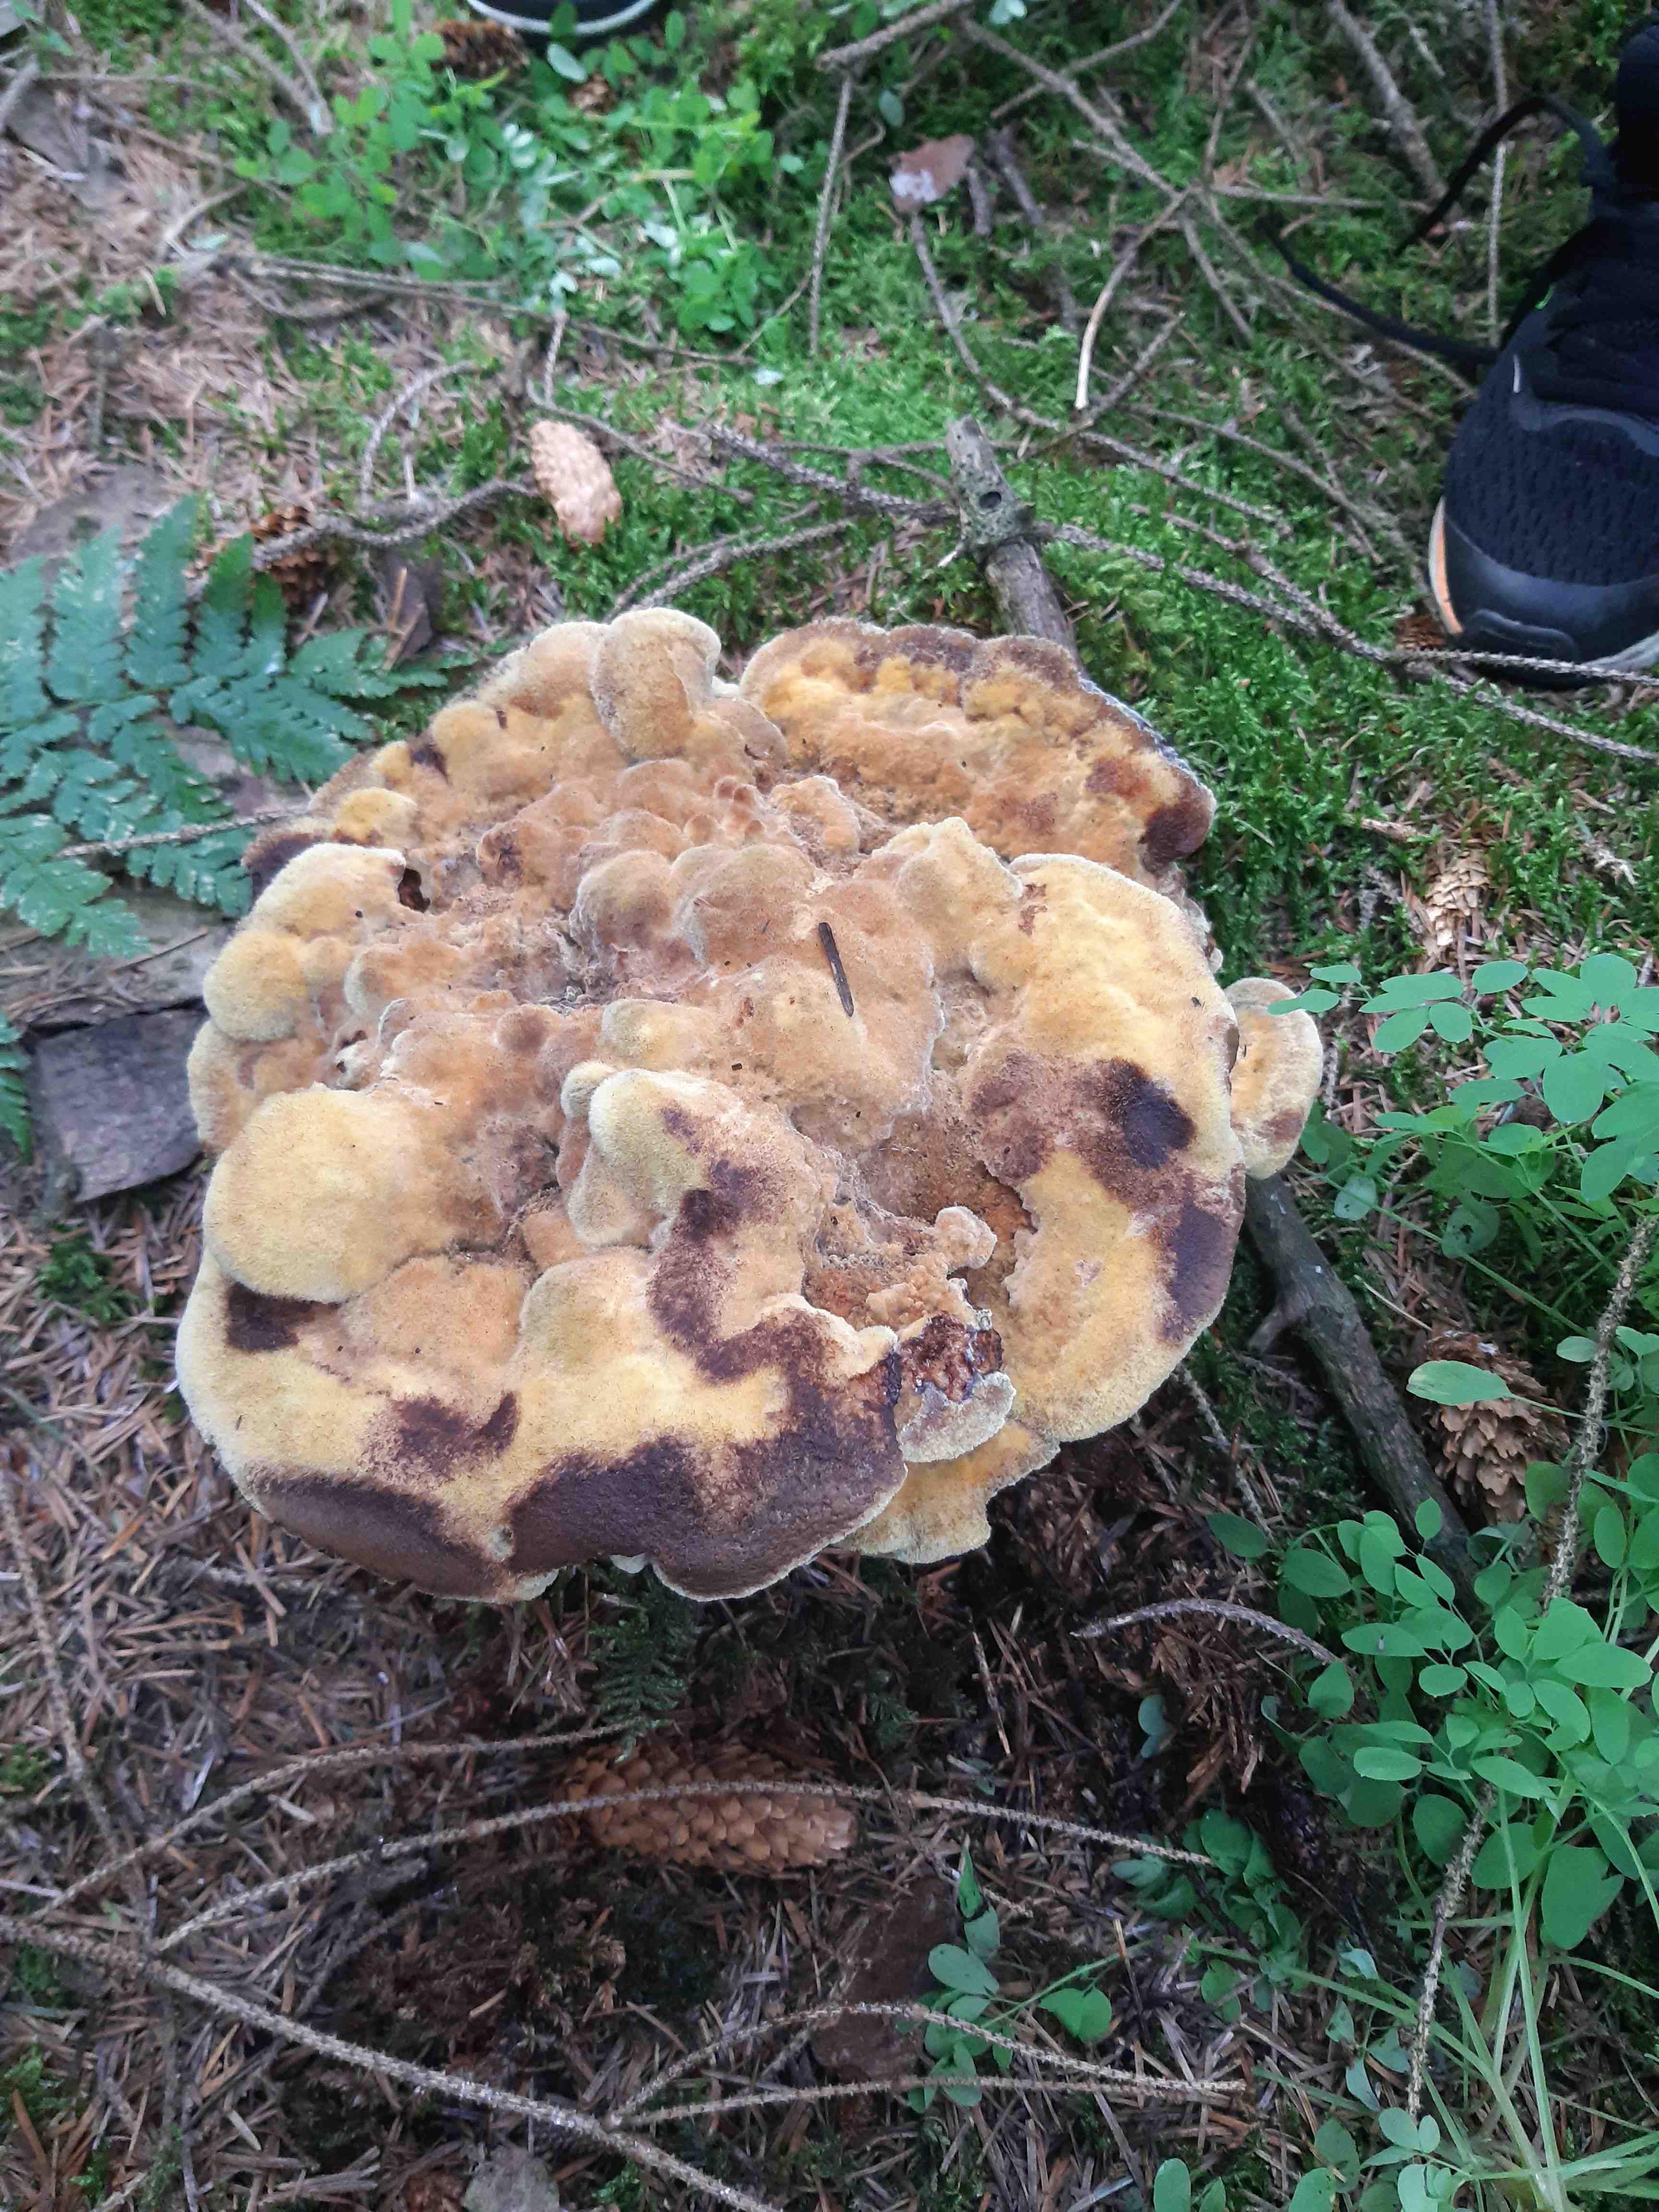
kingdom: Fungi
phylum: Basidiomycota
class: Agaricomycetes
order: Polyporales
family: Laetiporaceae
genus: Phaeolus
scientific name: Phaeolus schweinitzii
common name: brunporesvamp
